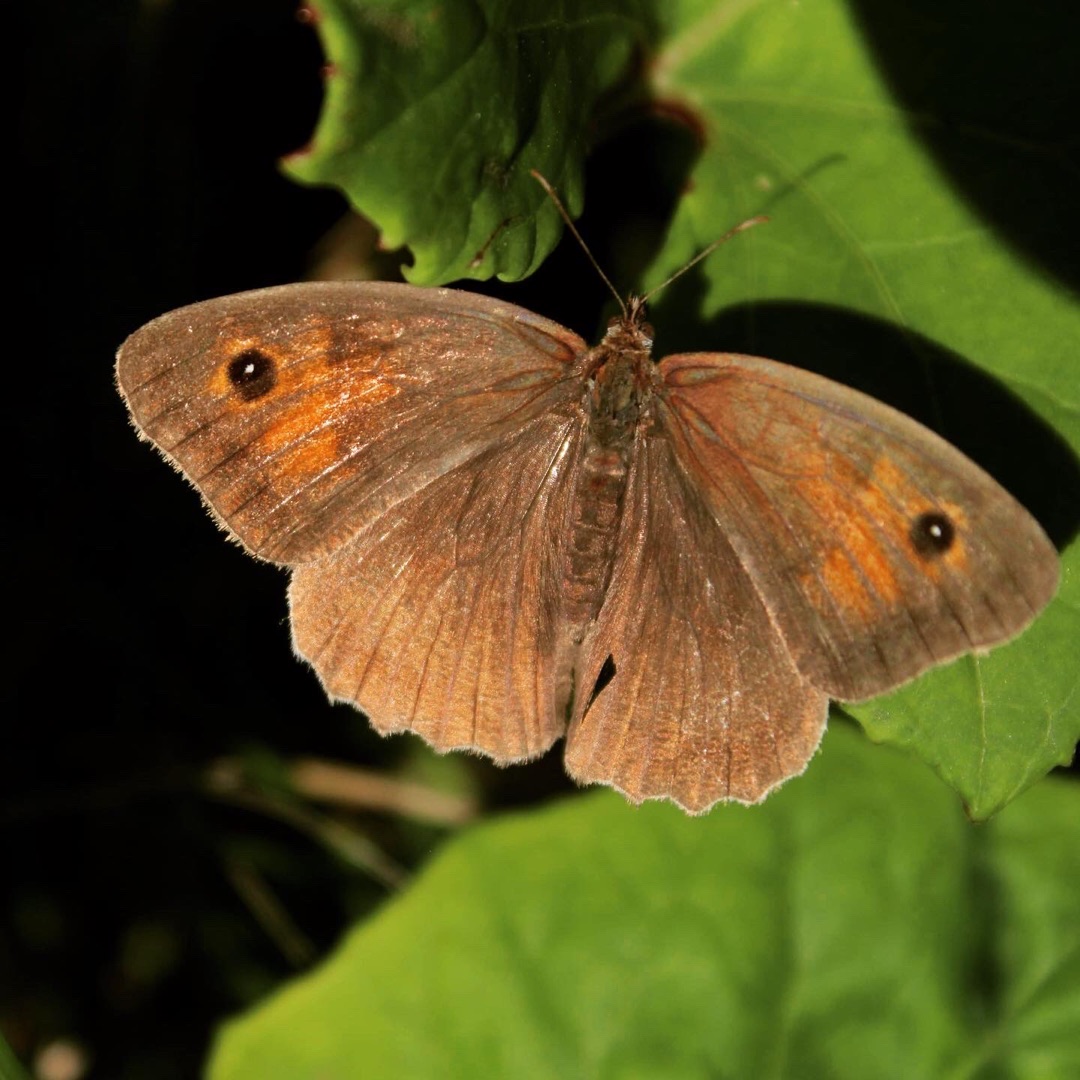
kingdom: Animalia
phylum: Arthropoda
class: Insecta
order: Lepidoptera
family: Nymphalidae
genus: Maniola
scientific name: Maniola jurtina
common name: Græsrandøje
